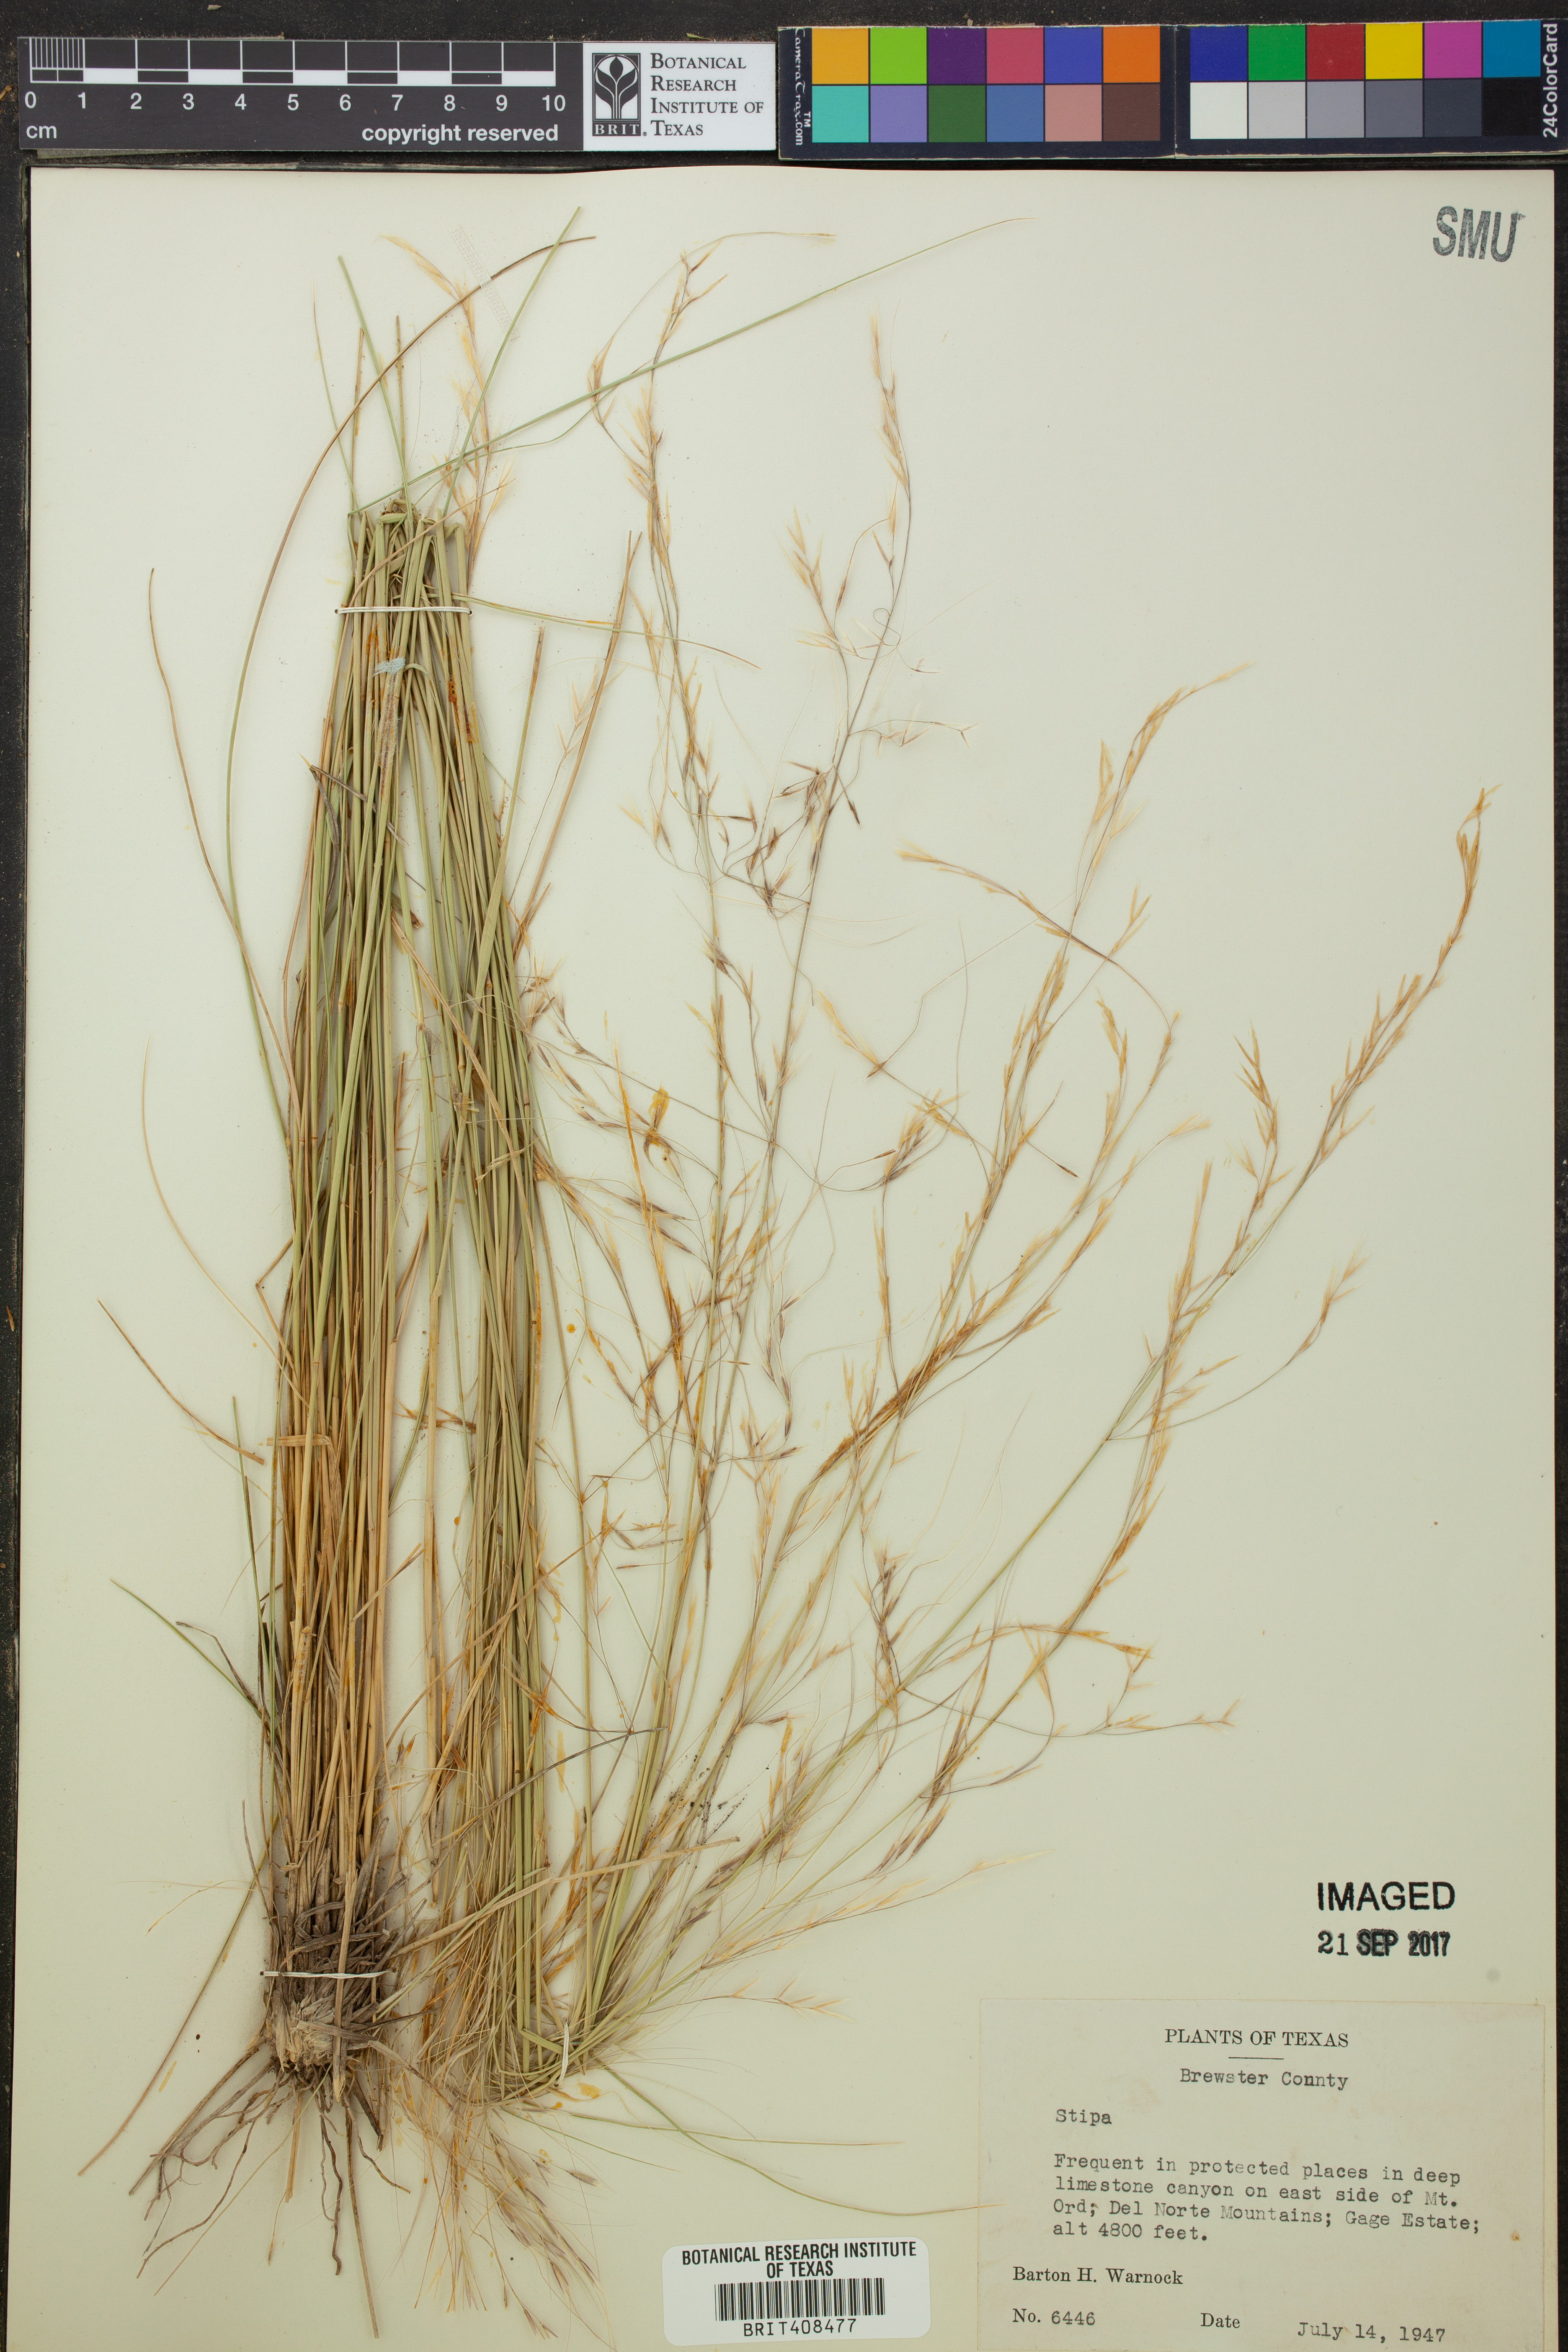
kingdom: Plantae
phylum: Tracheophyta
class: Liliopsida
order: Poales
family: Poaceae
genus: Stipa
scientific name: Stipa
